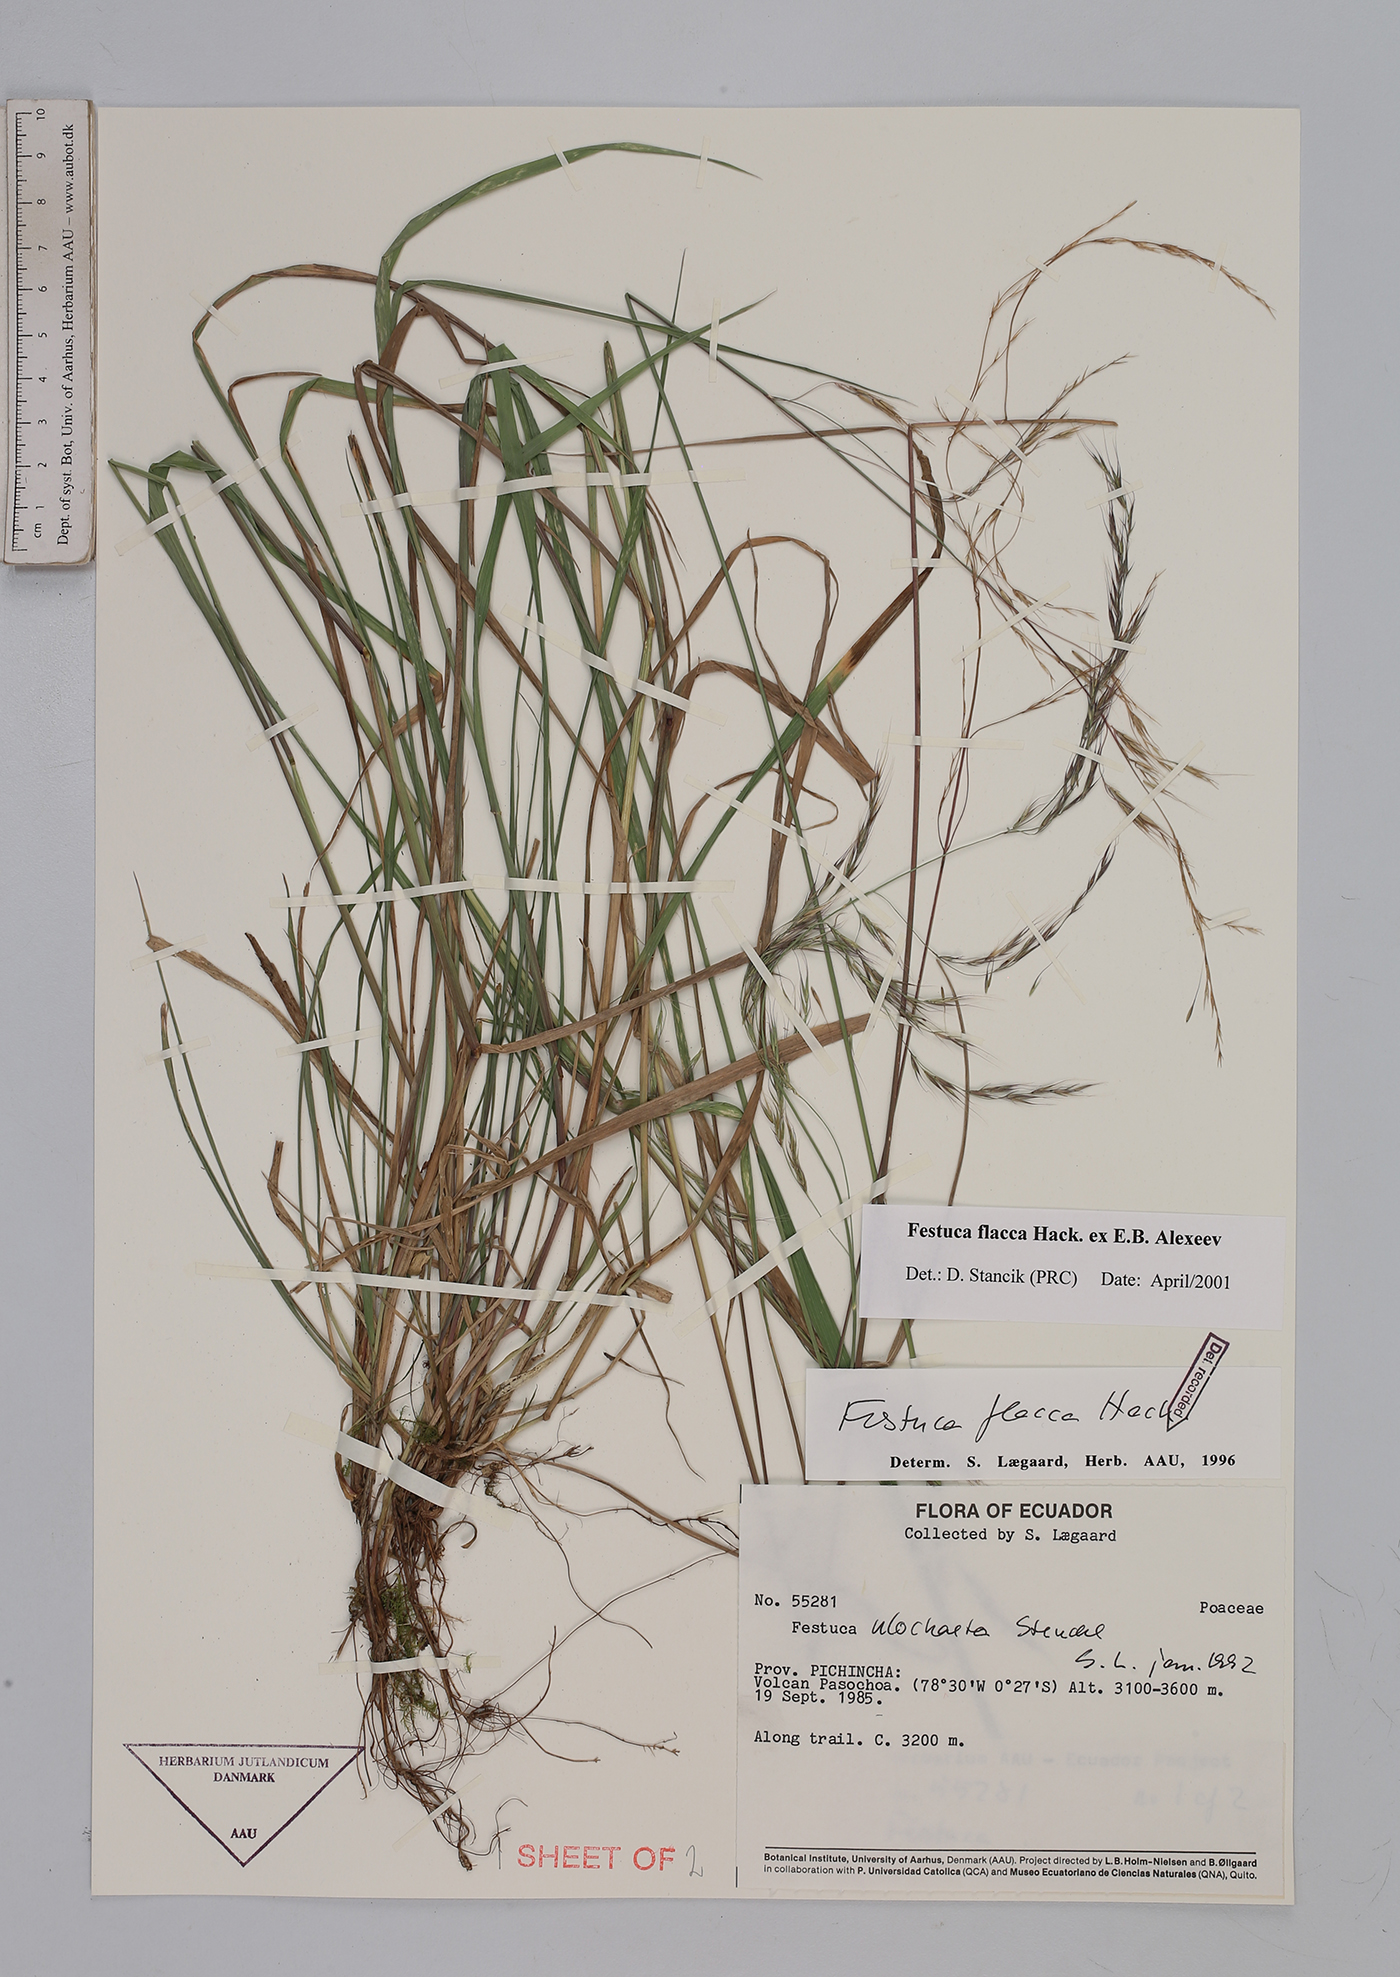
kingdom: Plantae
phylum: Tracheophyta
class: Liliopsida
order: Poales
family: Poaceae
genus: Festuca
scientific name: Festuca flacca
